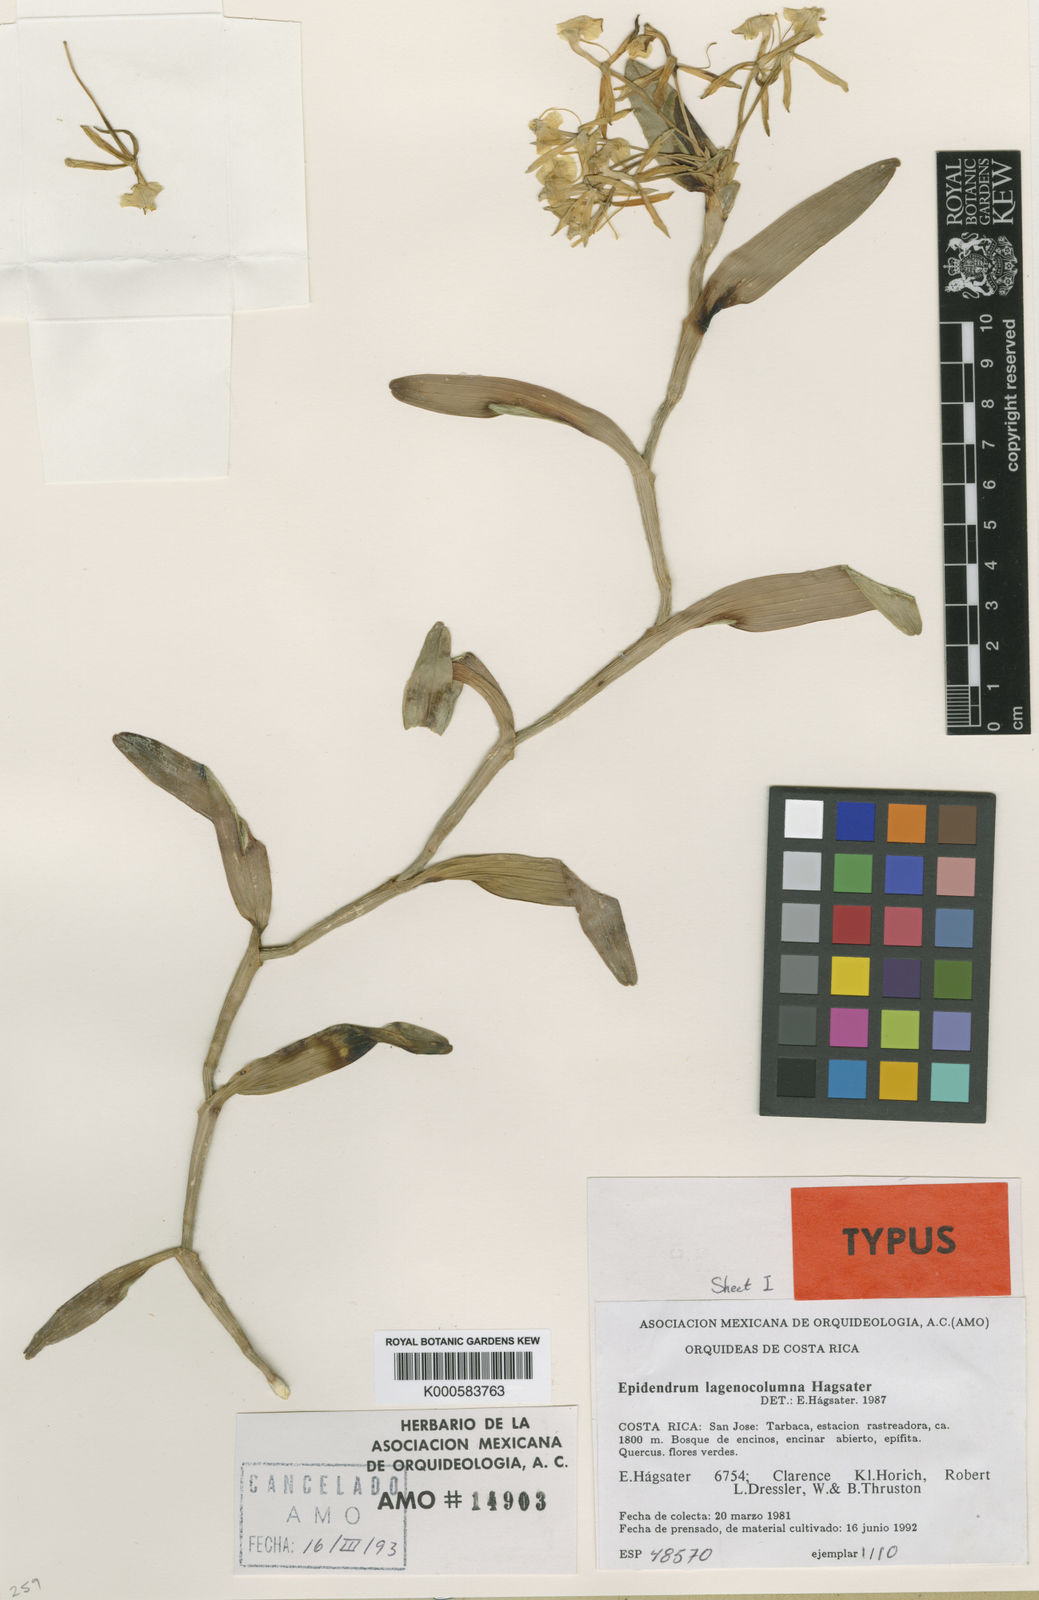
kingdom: Plantae
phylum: Tracheophyta
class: Liliopsida
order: Asparagales
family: Orchidaceae
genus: Epidendrum
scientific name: Epidendrum
